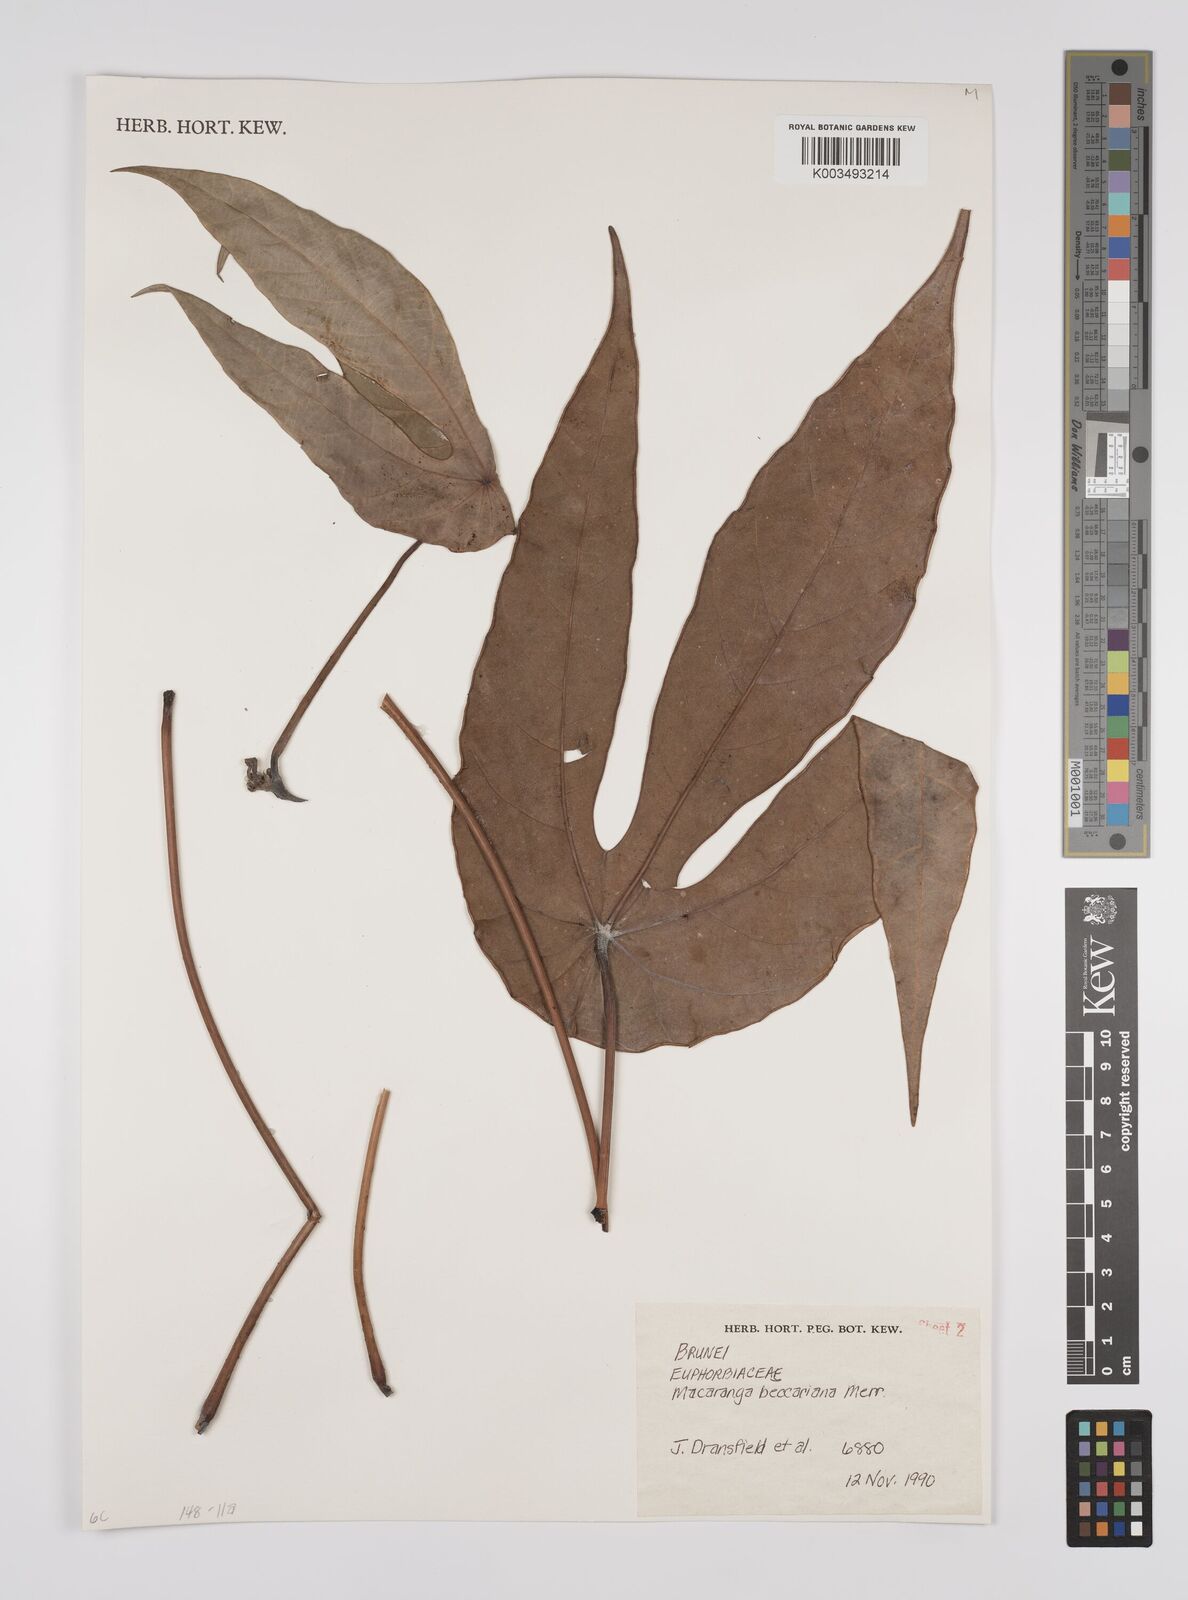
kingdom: Plantae
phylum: Tracheophyta
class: Magnoliopsida
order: Malpighiales
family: Euphorbiaceae
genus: Macaranga
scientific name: Macaranga beccariana
